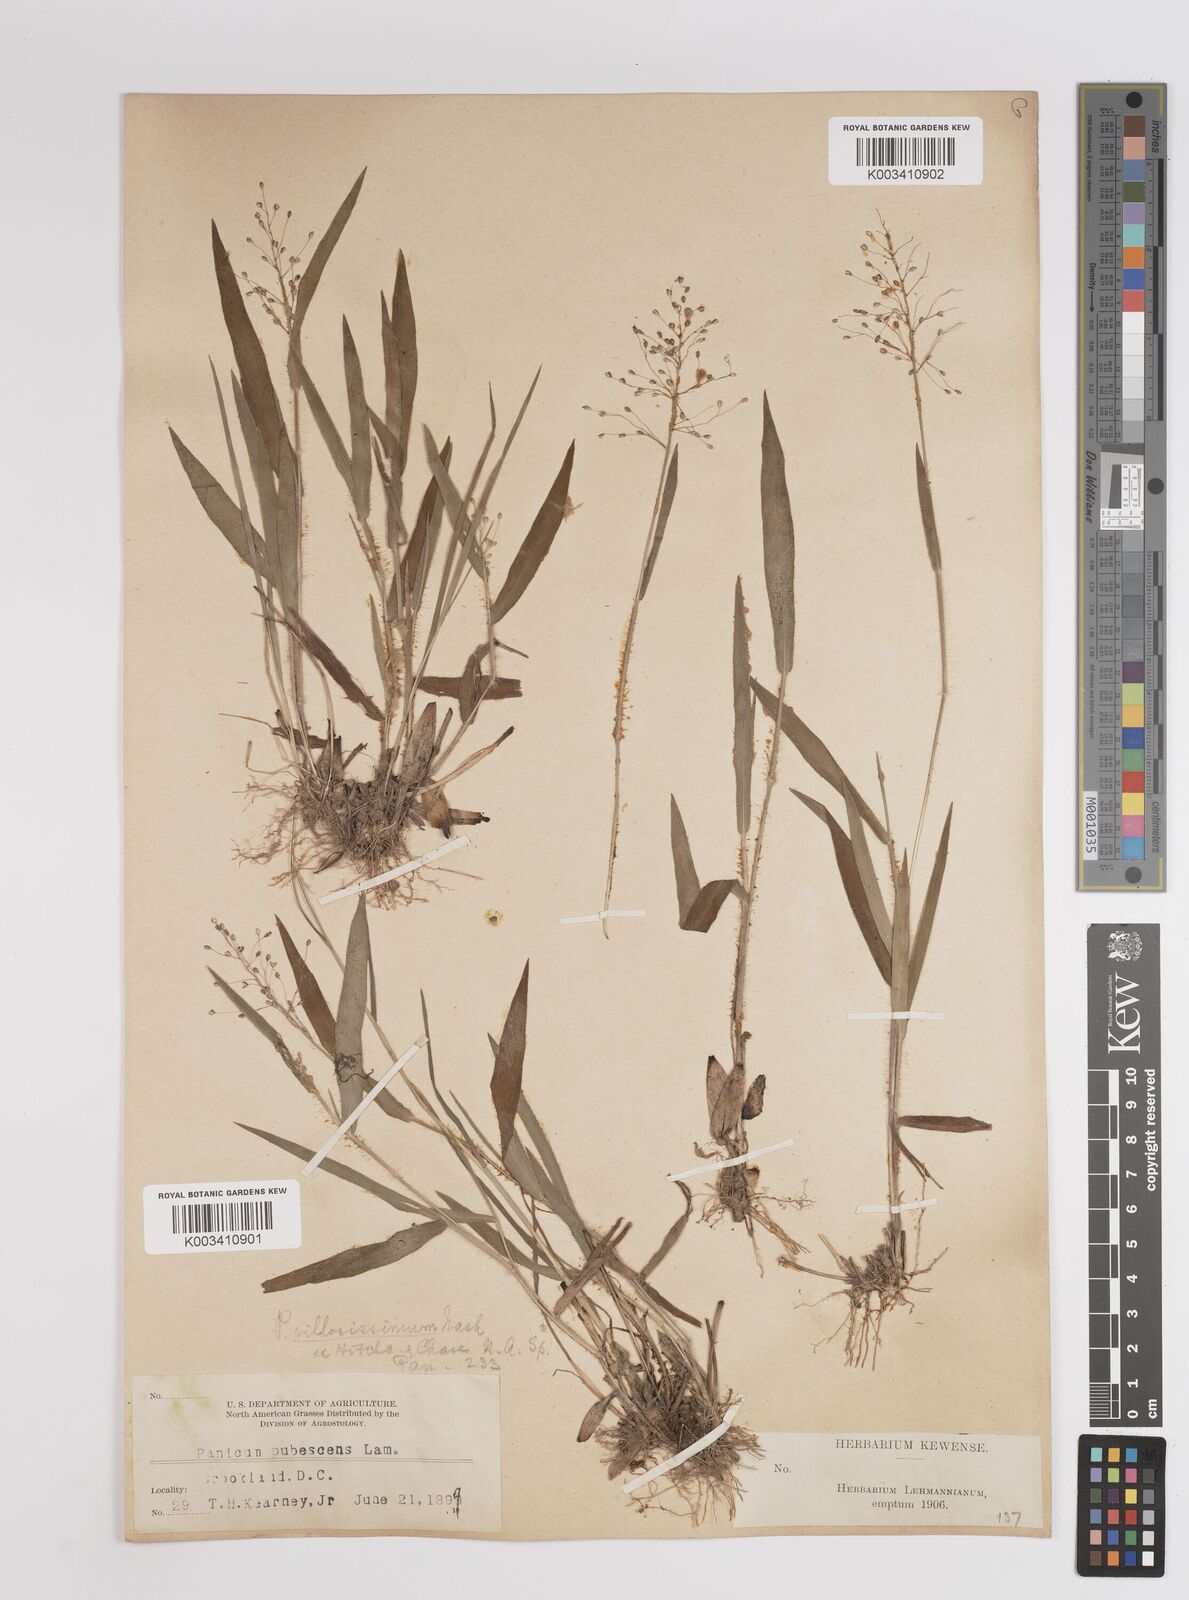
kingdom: Plantae
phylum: Tracheophyta
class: Liliopsida
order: Poales
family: Poaceae
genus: Dichanthelium
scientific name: Dichanthelium villosissimum
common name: White-haired panicgrass
